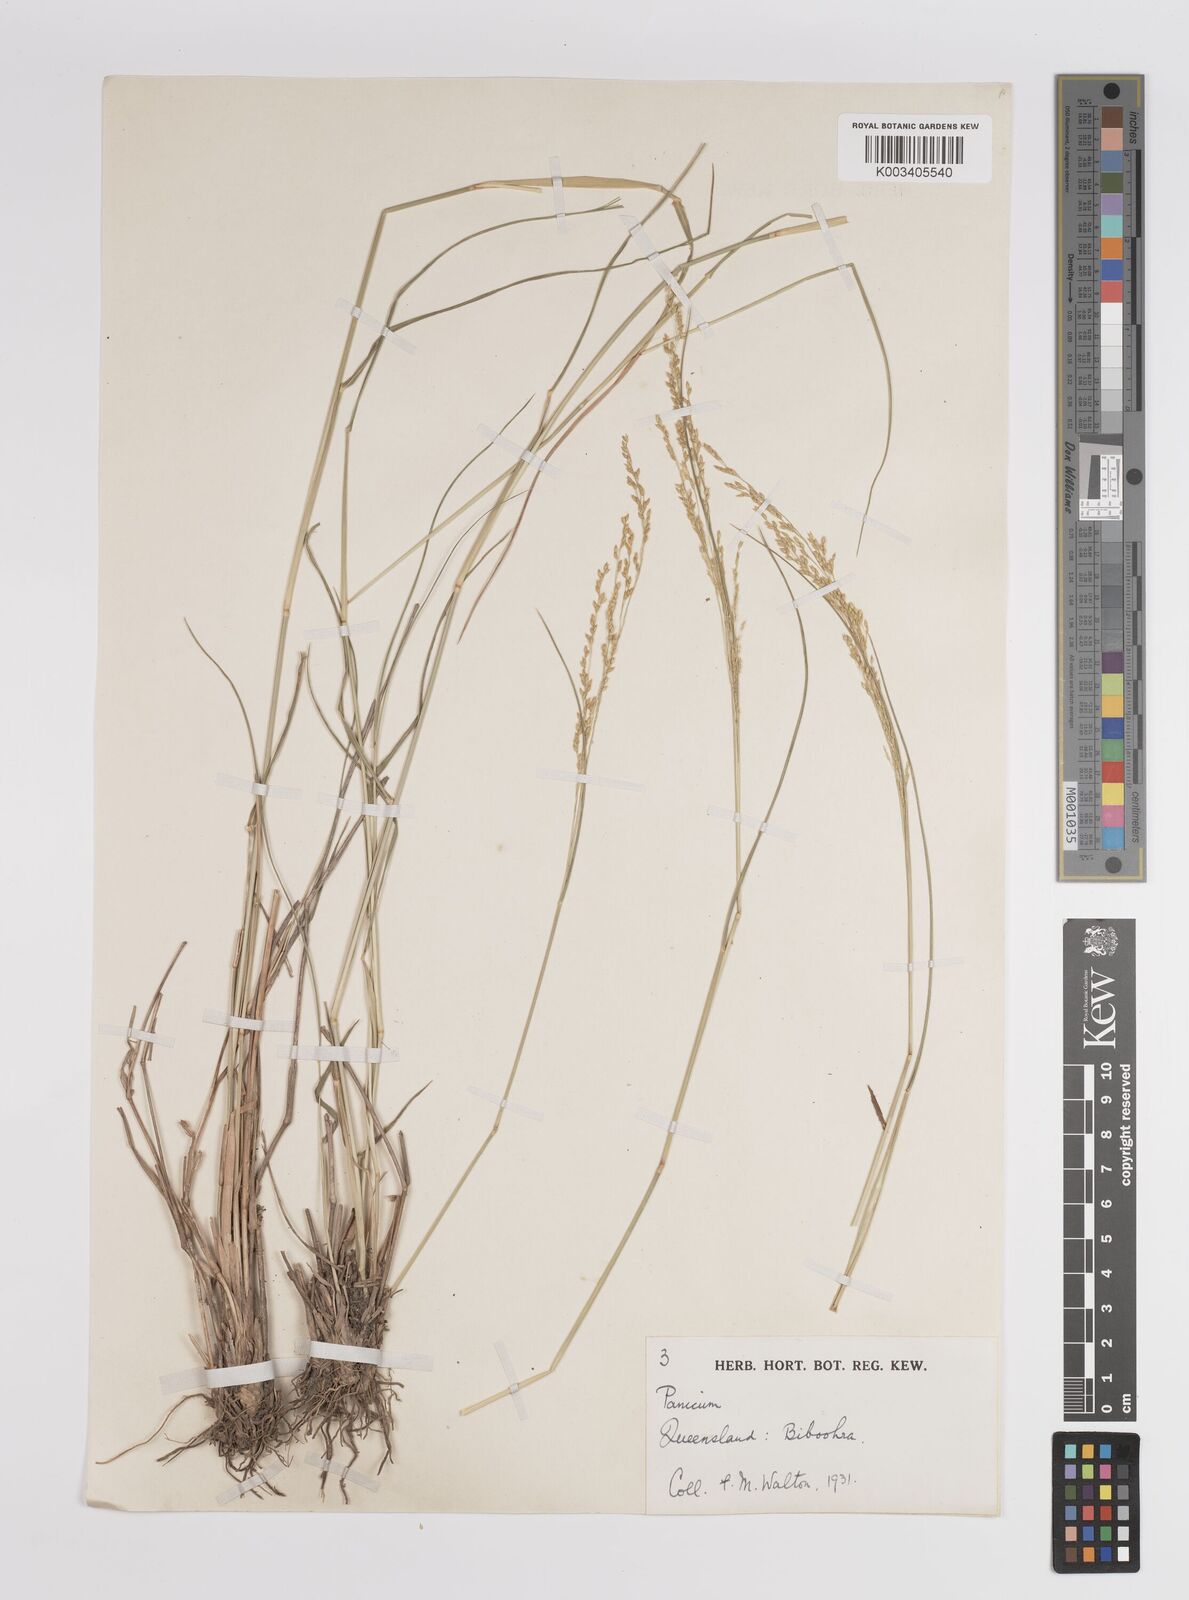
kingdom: Plantae
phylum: Tracheophyta
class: Liliopsida
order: Poales
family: Poaceae
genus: Panicum
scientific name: Panicum
